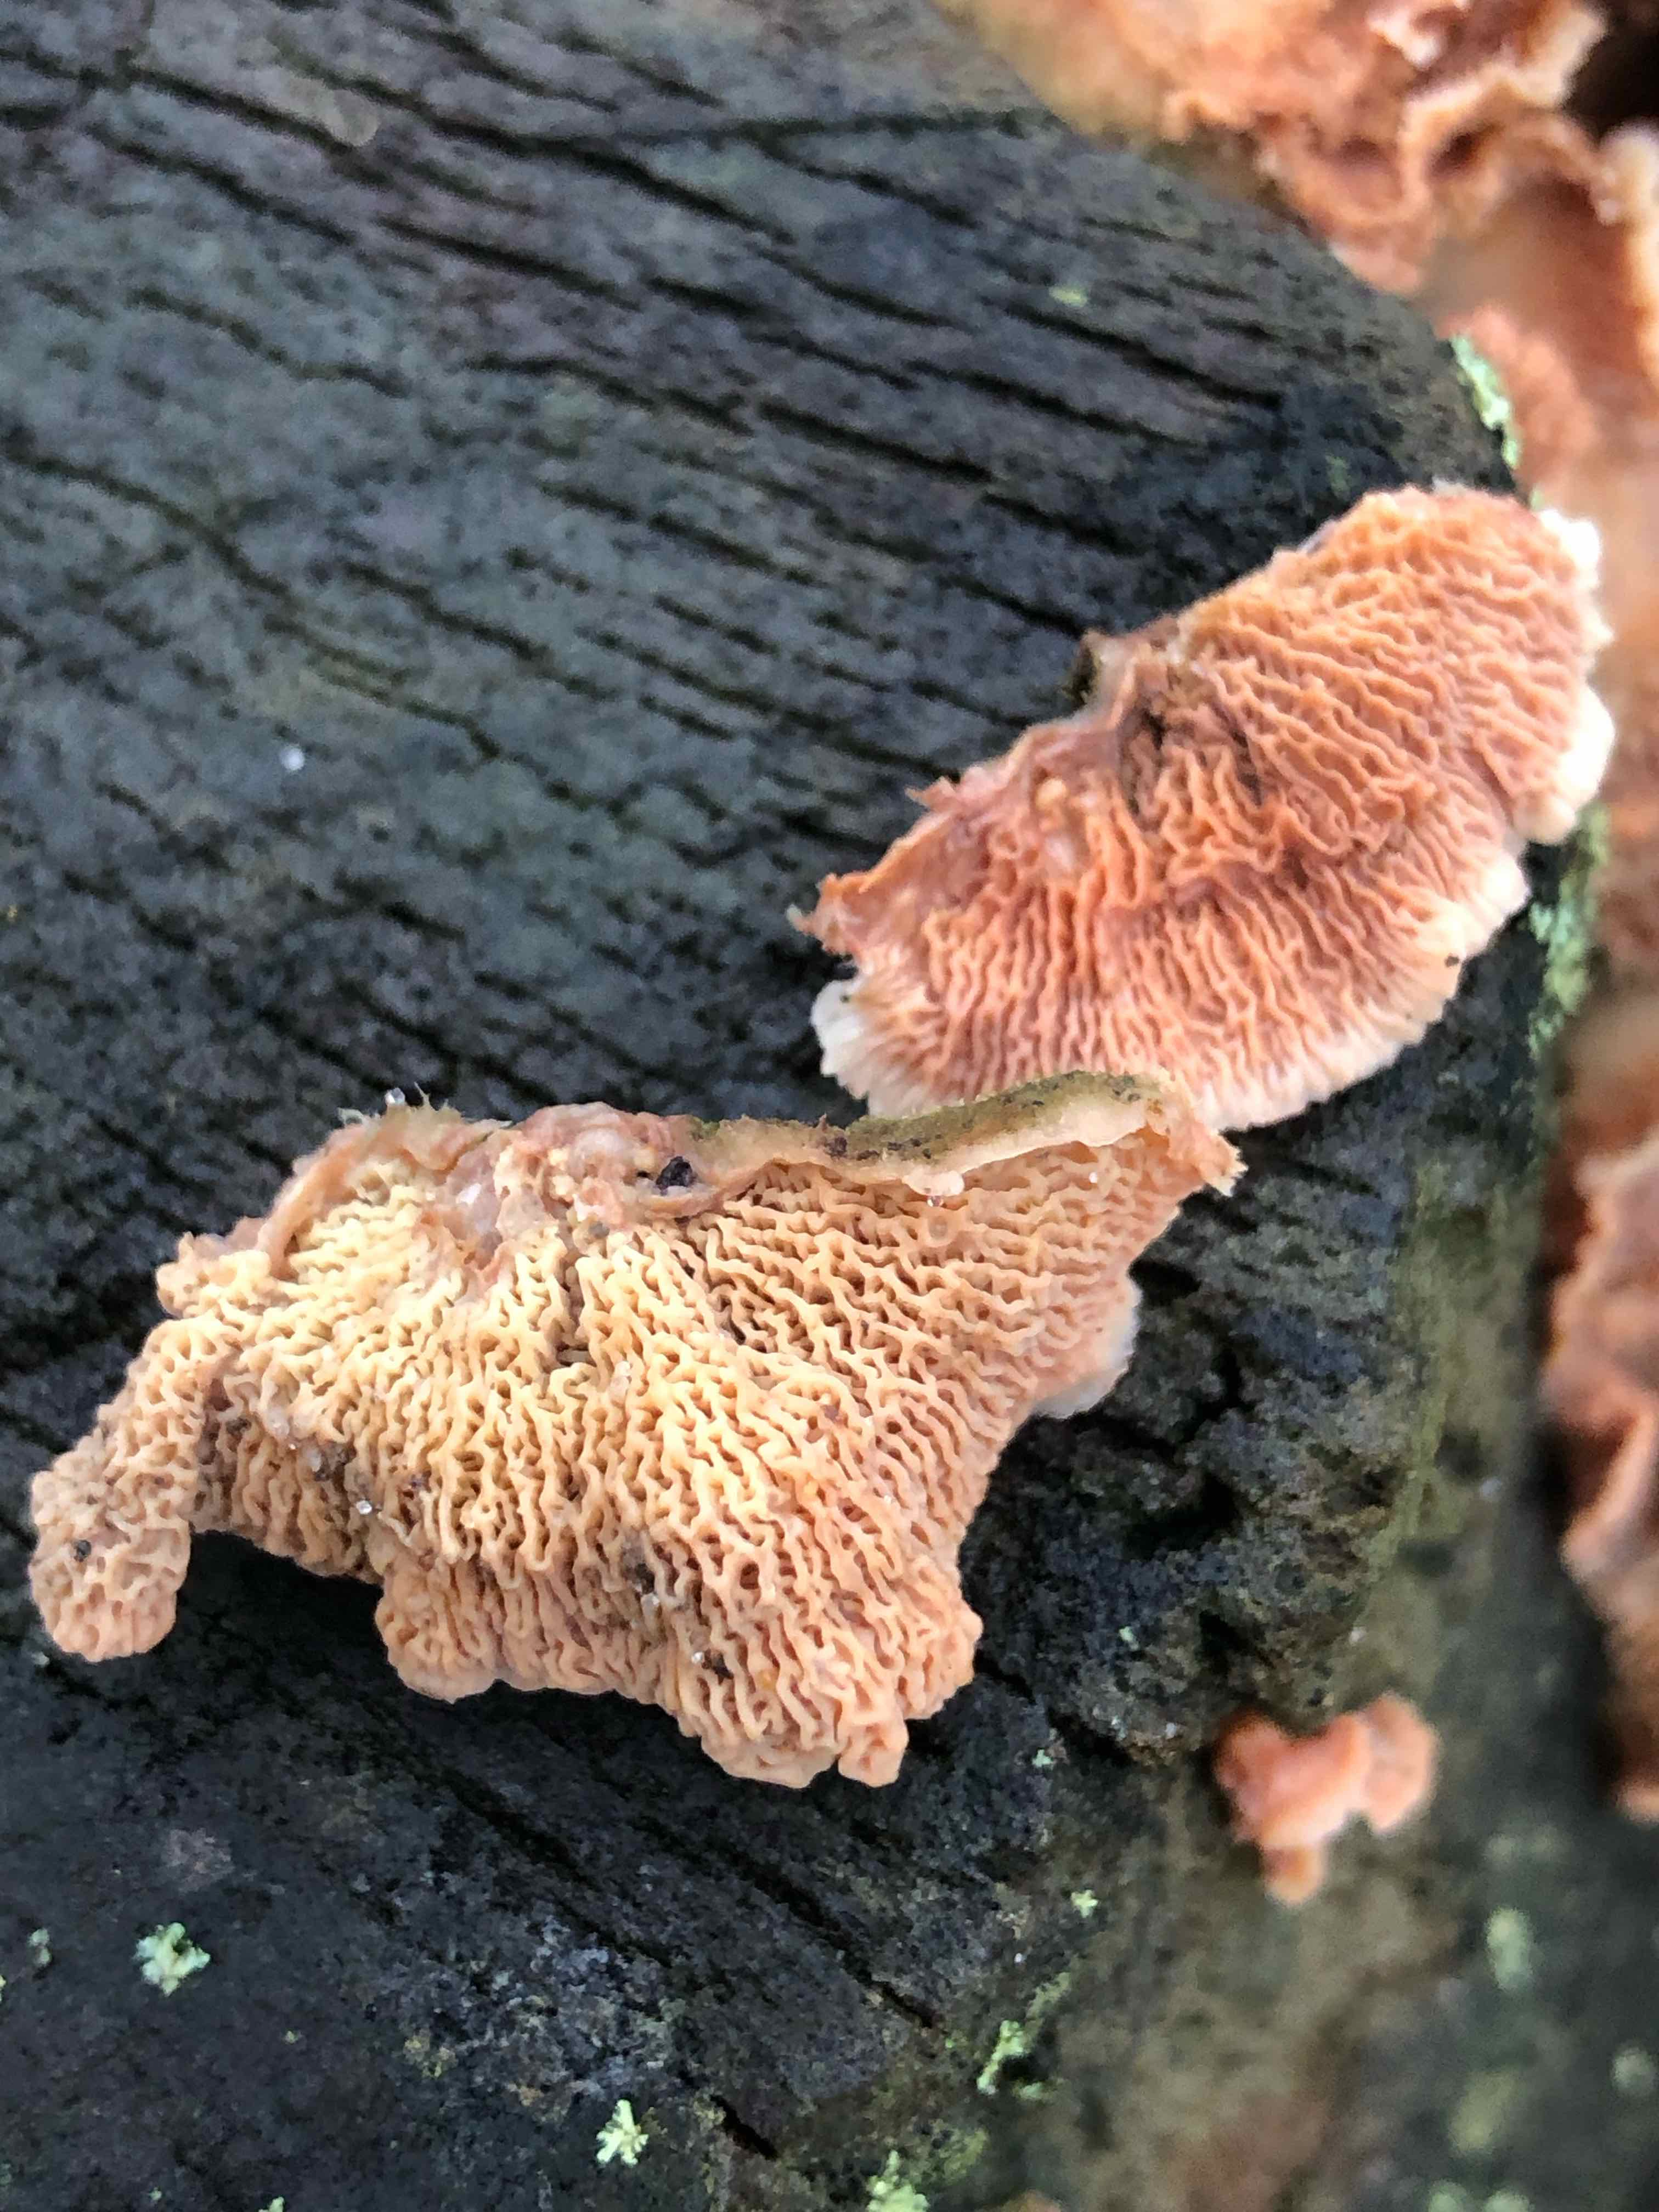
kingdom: Fungi
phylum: Basidiomycota
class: Agaricomycetes
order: Polyporales
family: Meruliaceae
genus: Phlebia
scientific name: Phlebia tremellosa
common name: bævrende åresvamp
